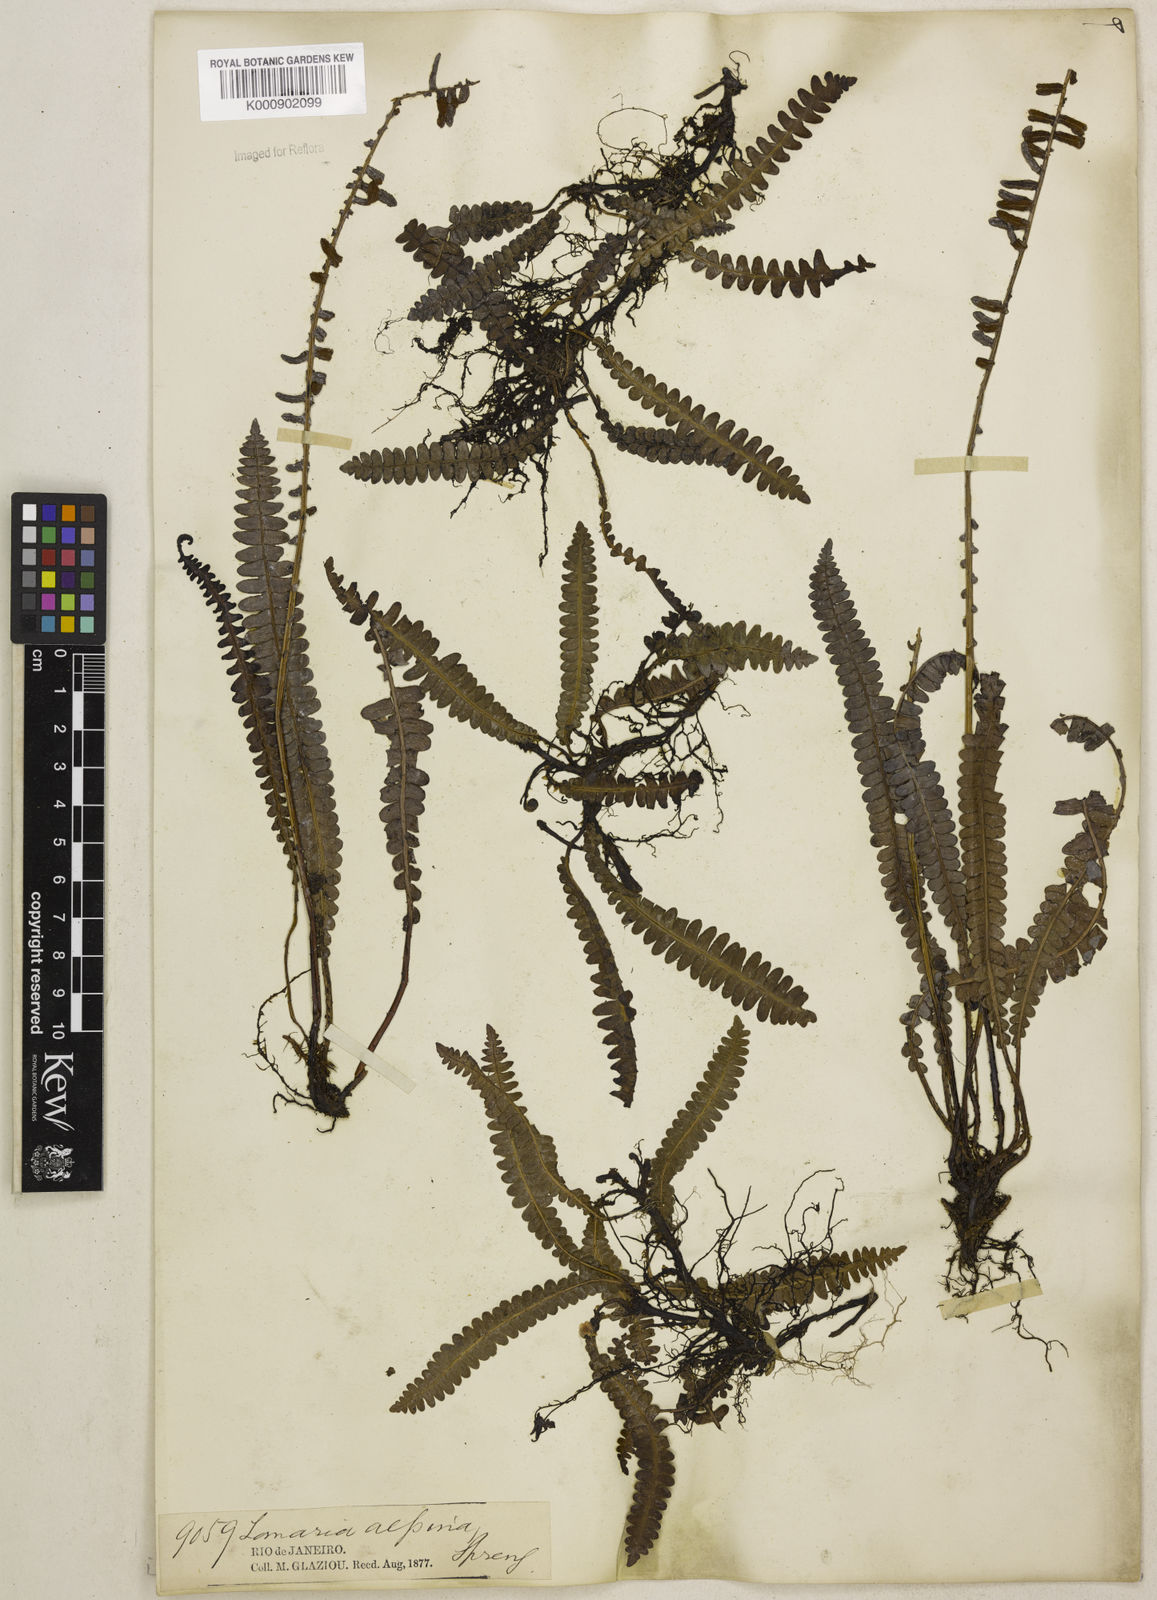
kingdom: Plantae
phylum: Tracheophyta
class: Polypodiopsida
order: Polypodiales
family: Blechnaceae
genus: Austroblechnum
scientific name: Austroblechnum penna-marina
